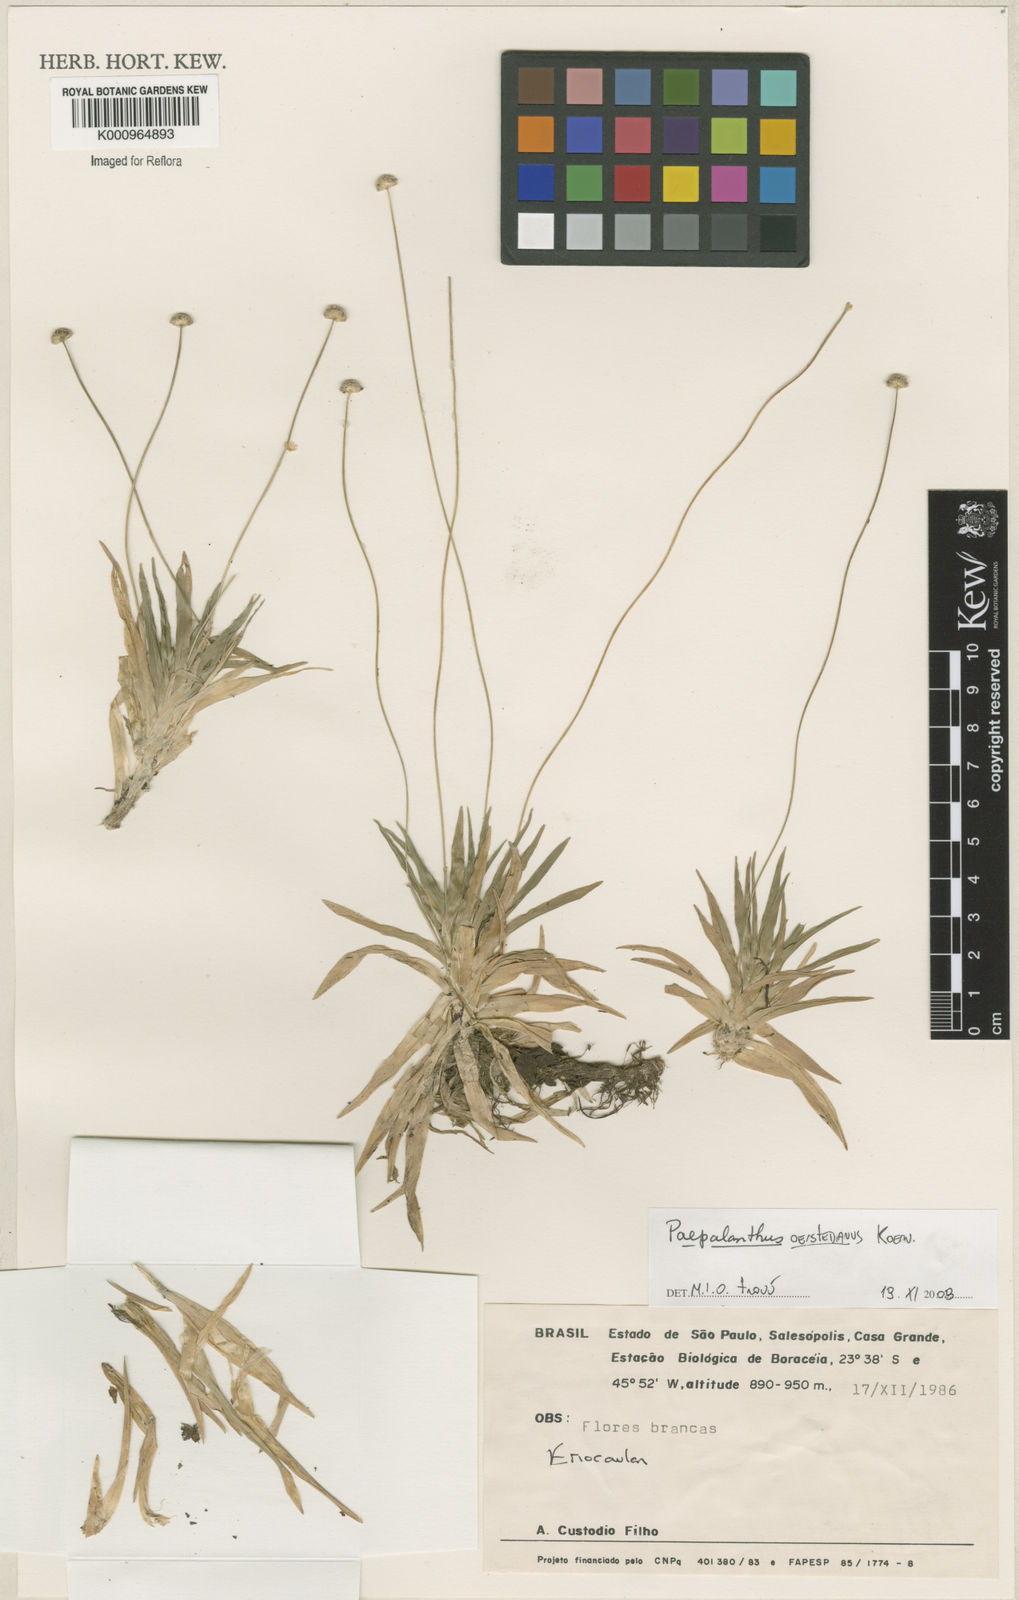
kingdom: Plantae
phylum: Tracheophyta
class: Liliopsida
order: Poales
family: Eriocaulaceae
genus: Paepalanthus
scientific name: Paepalanthus
